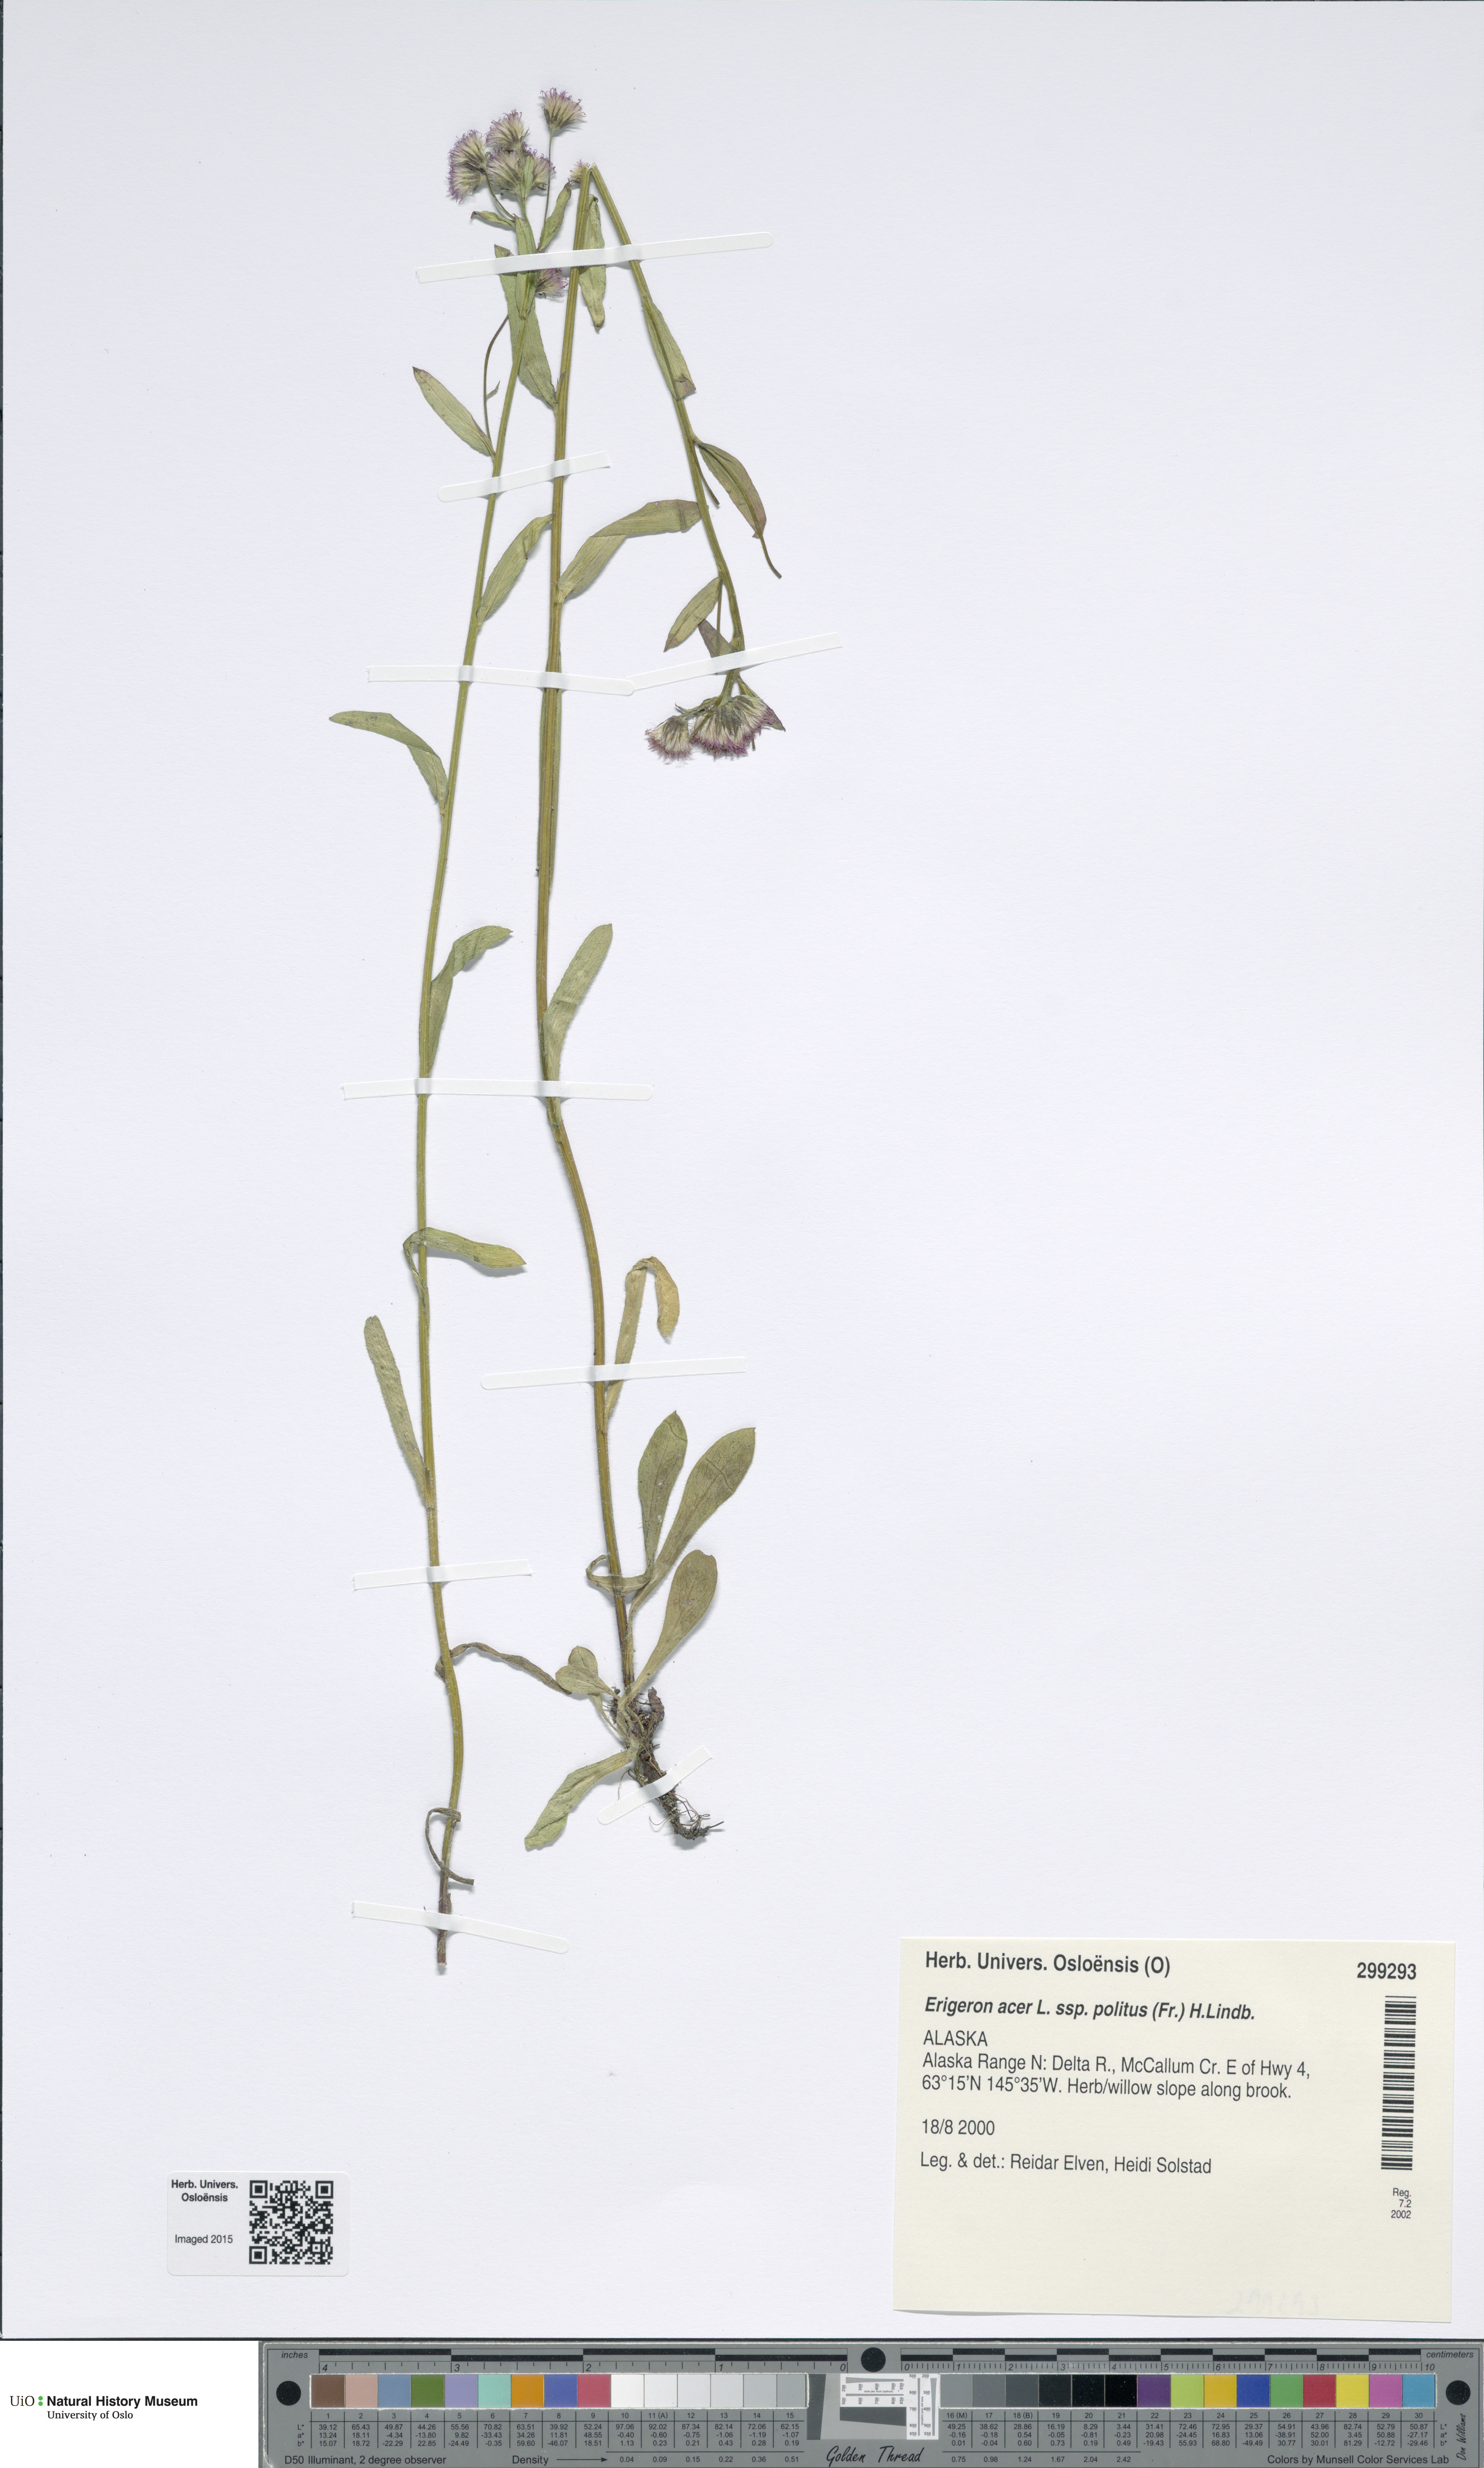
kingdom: Plantae
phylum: Tracheophyta
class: Magnoliopsida
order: Asterales
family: Asteraceae
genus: Erigeron
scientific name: Erigeron politus
